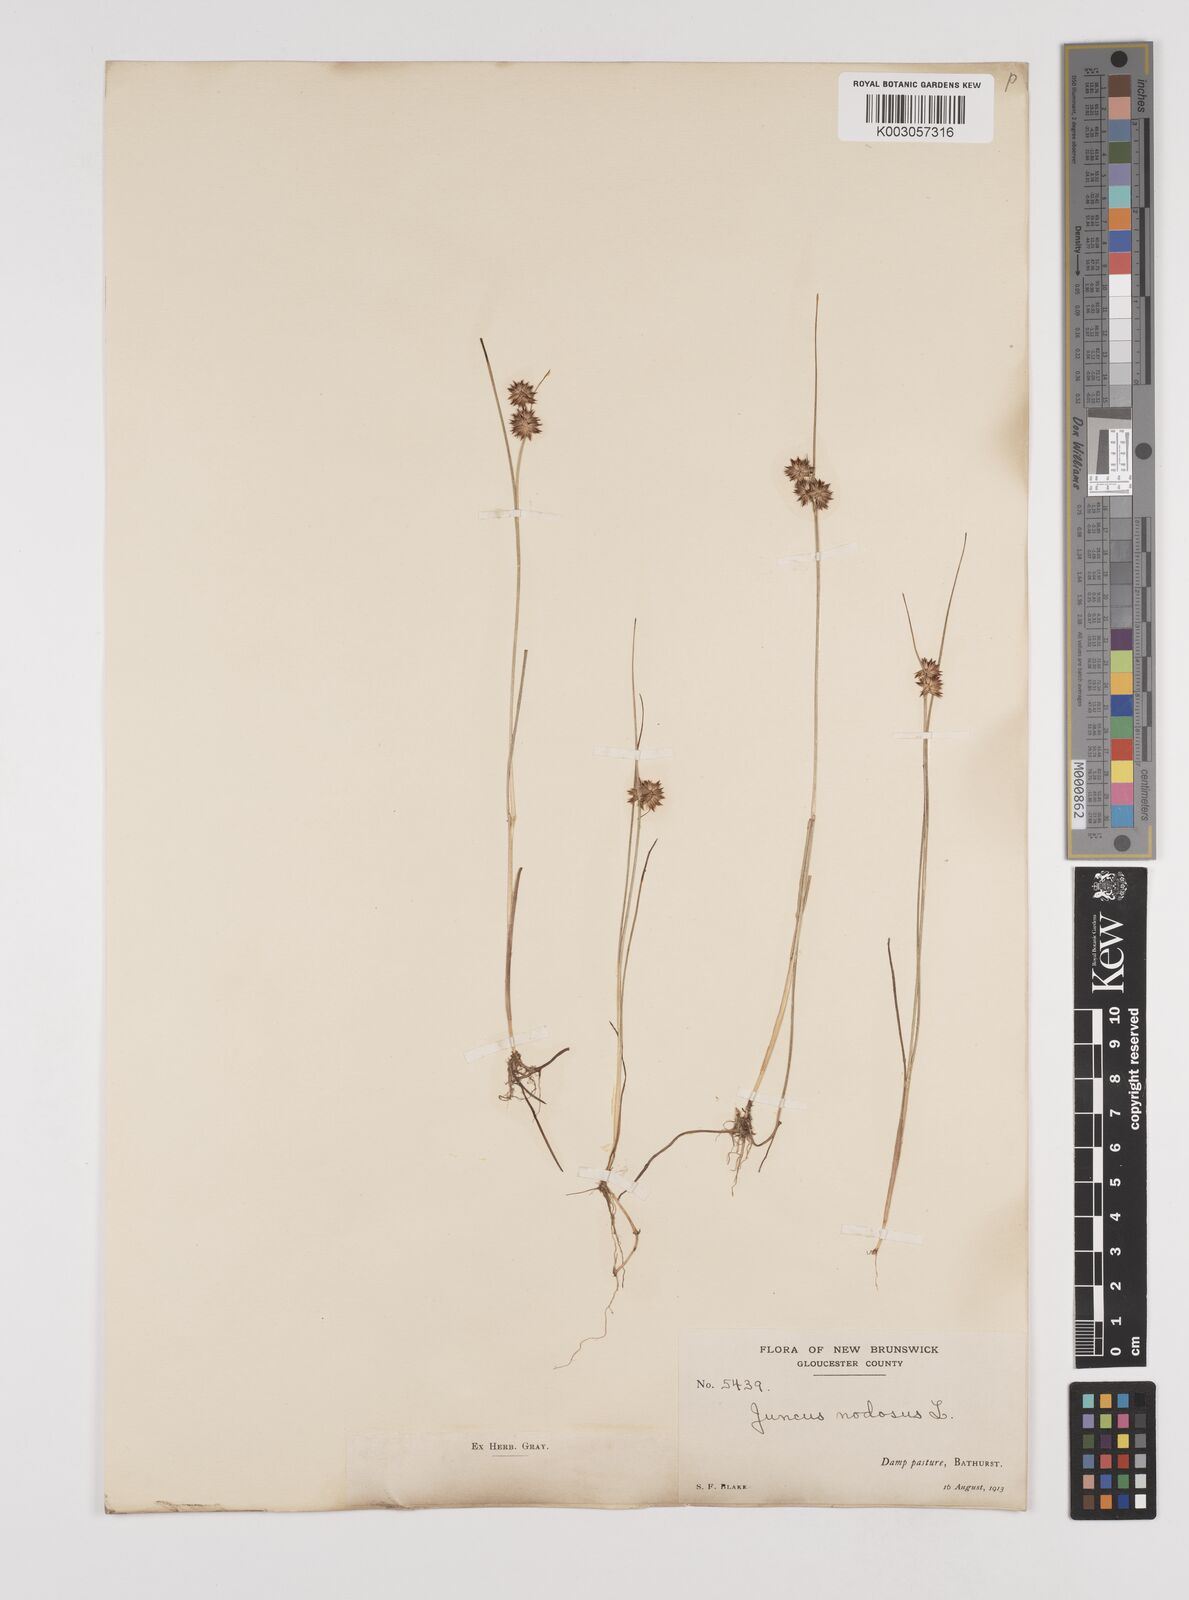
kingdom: Plantae
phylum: Tracheophyta
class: Liliopsida
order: Poales
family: Juncaceae
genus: Juncus
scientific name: Juncus nodosus
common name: Knotted rush
